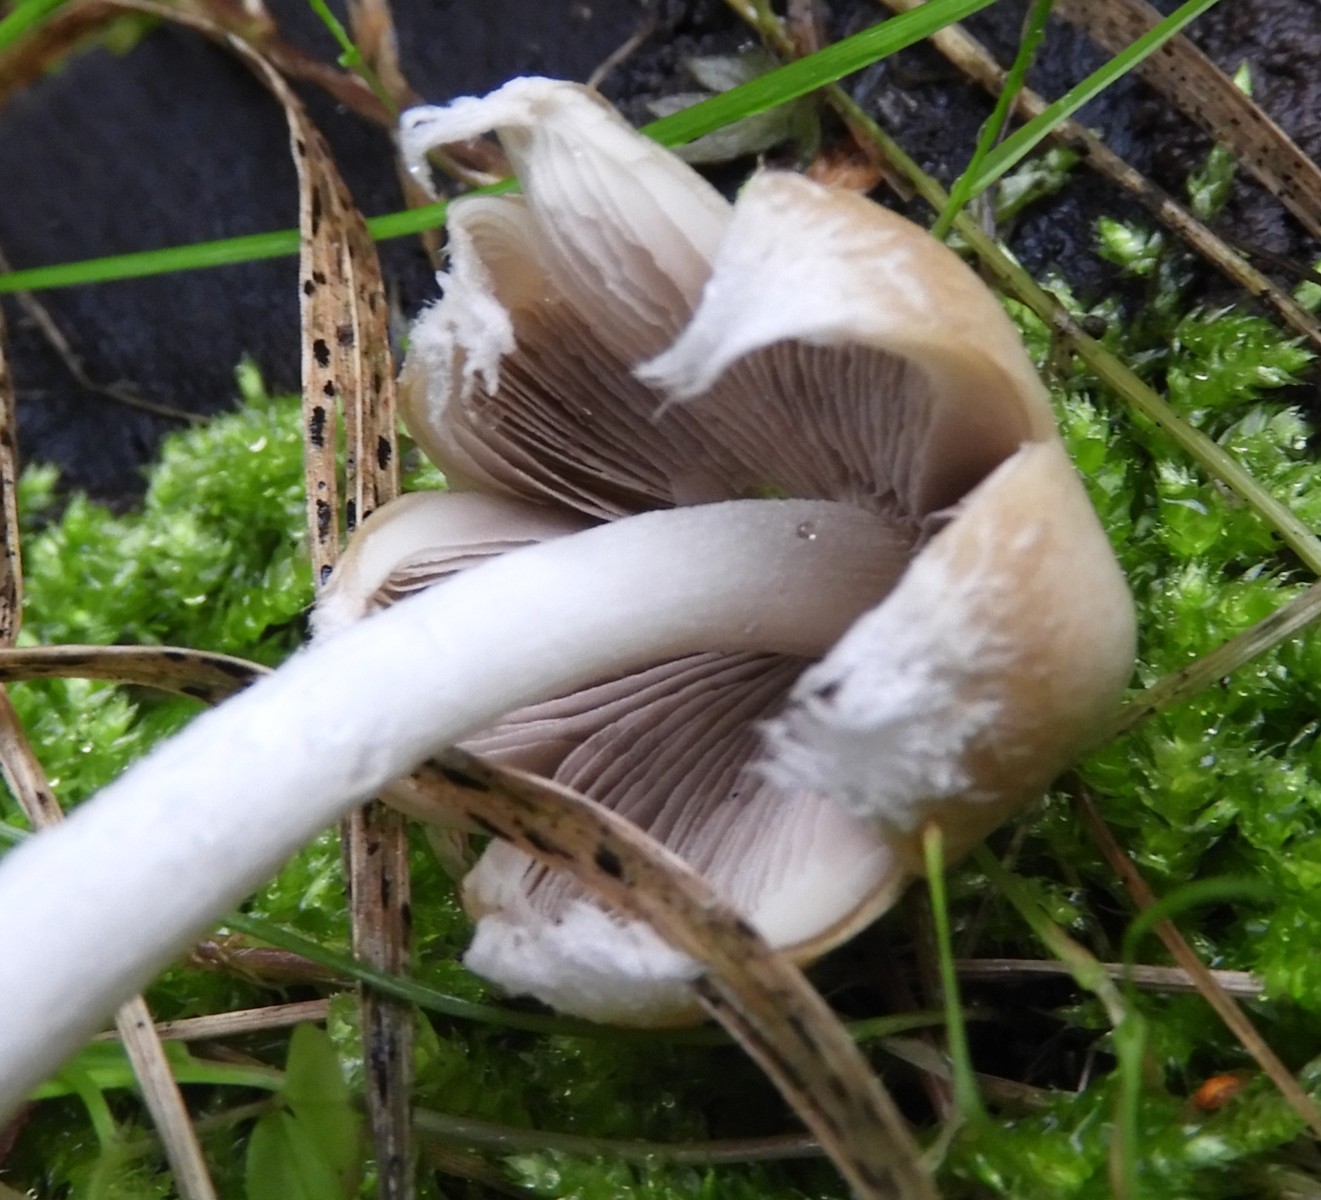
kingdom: Fungi
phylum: Basidiomycota
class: Agaricomycetes
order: Agaricales
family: Psathyrellaceae
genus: Candolleomyces
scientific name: Candolleomyces candolleanus
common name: Candolles mørkhat
